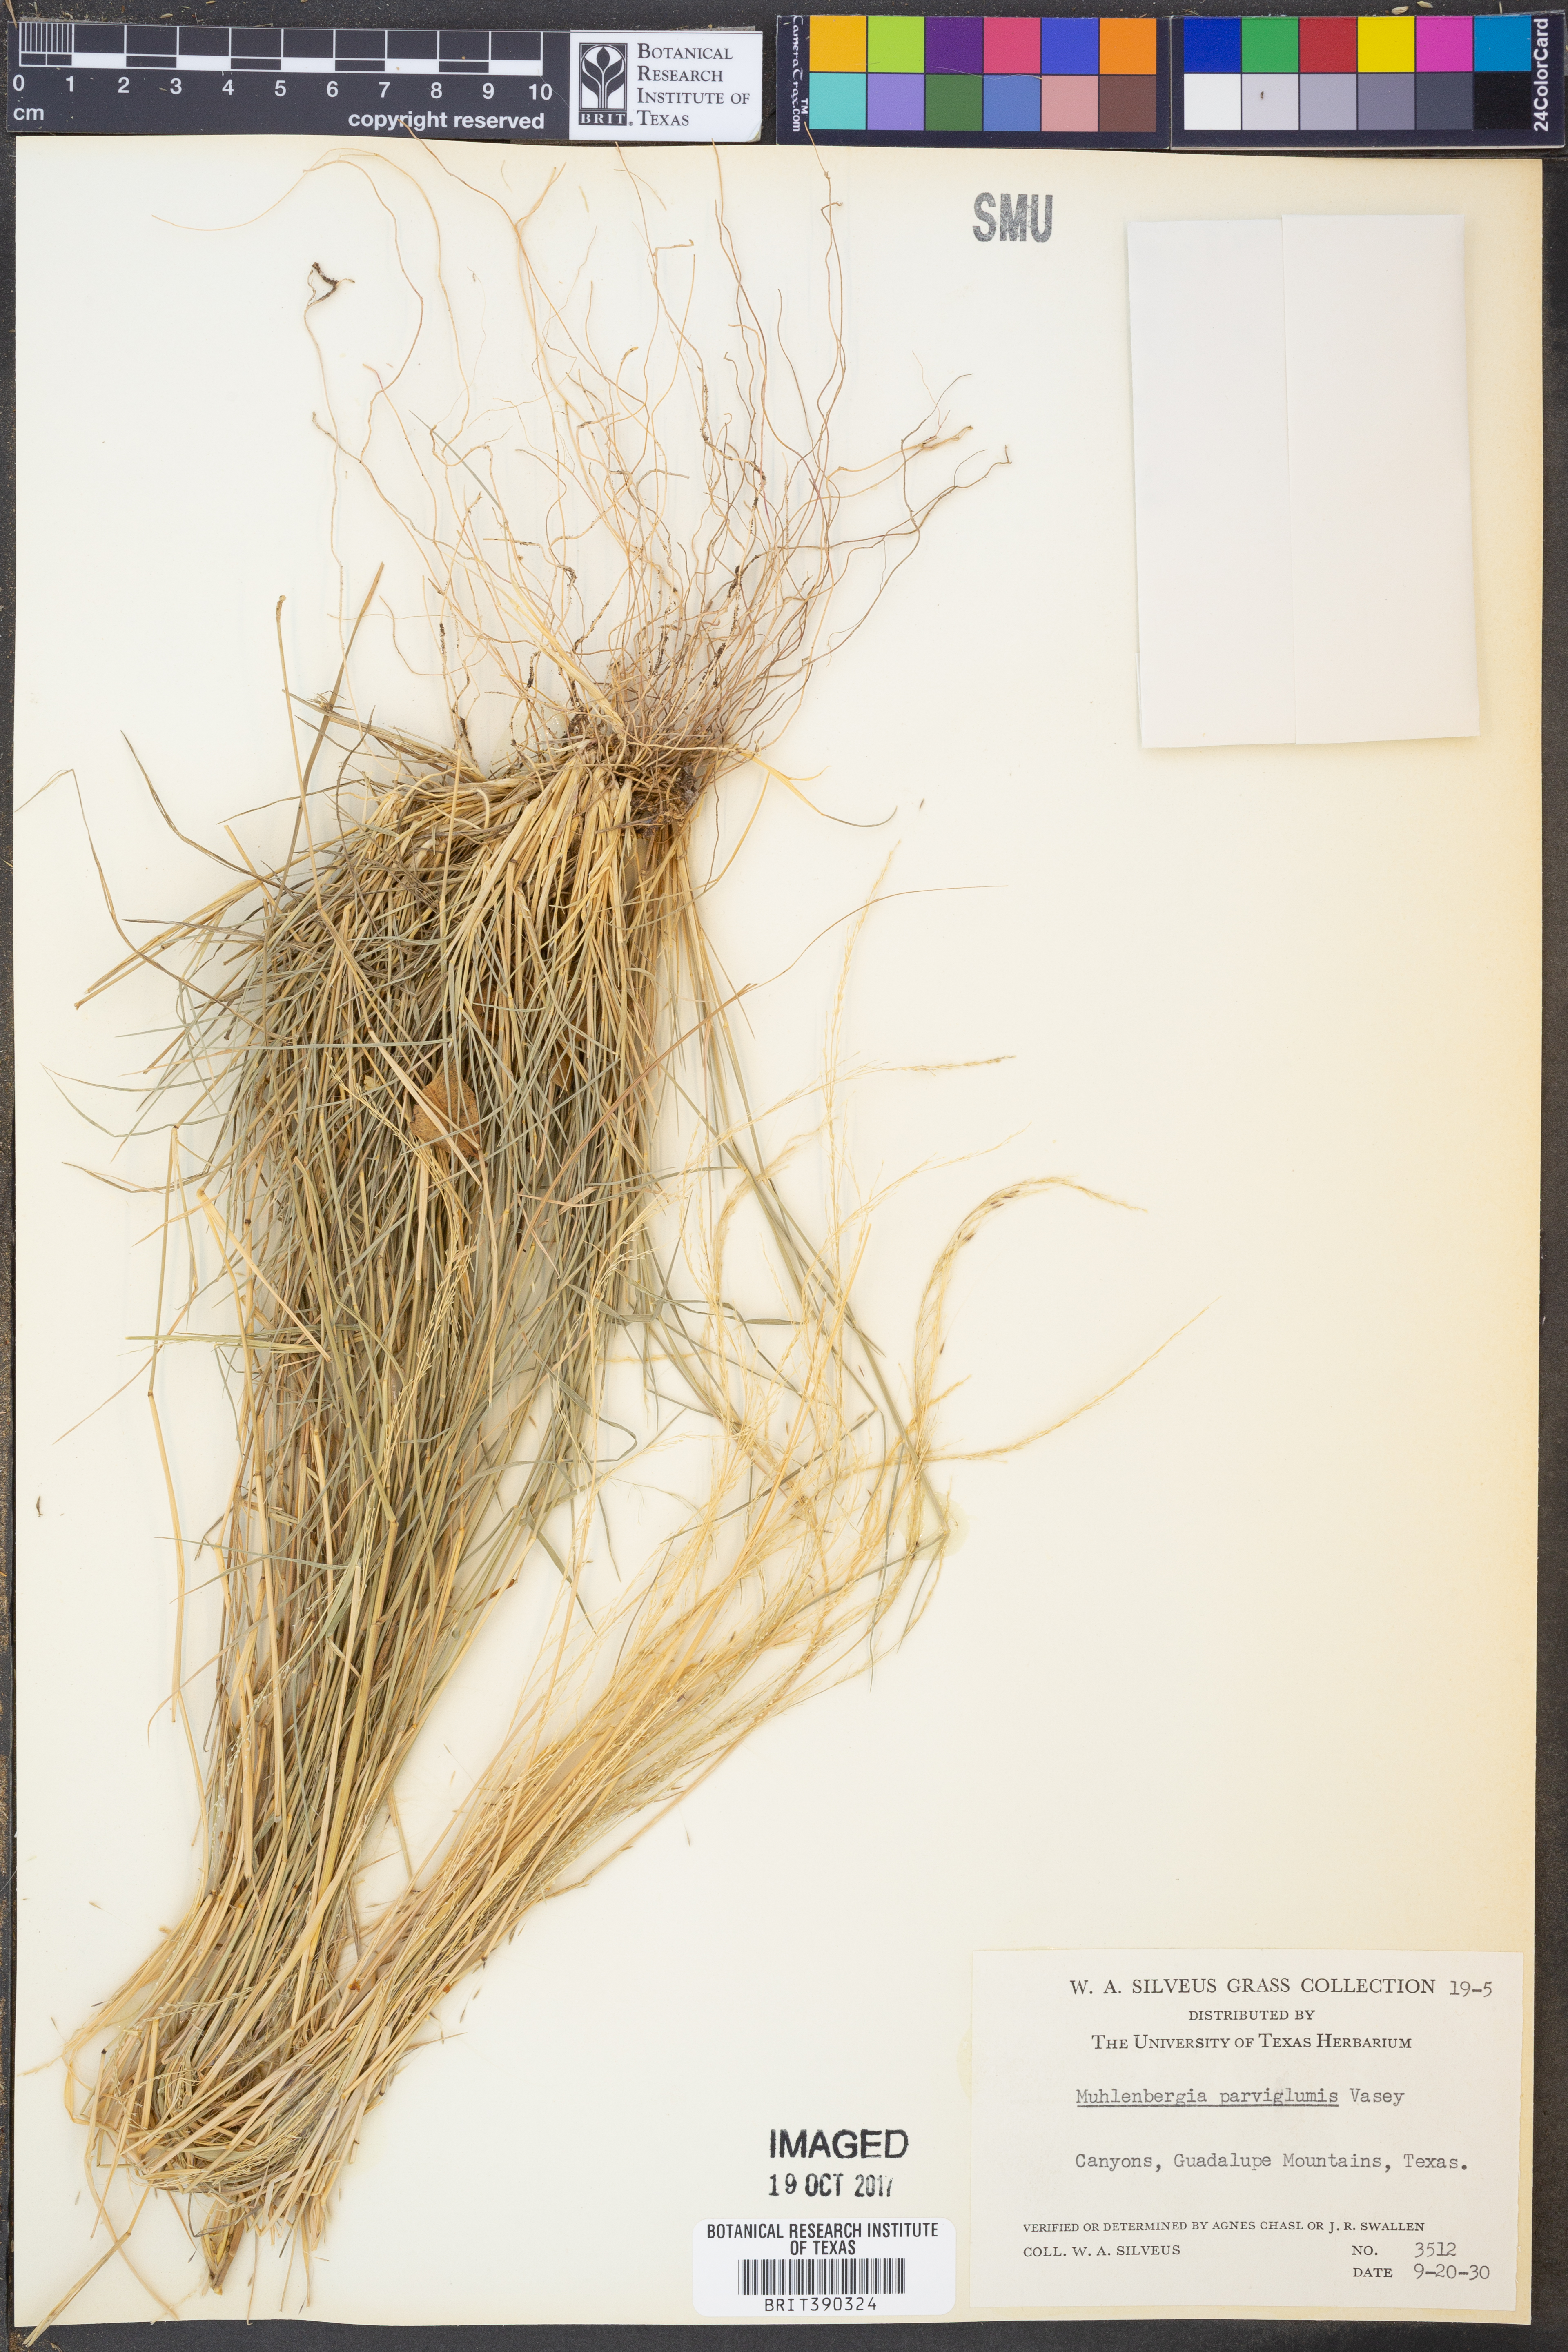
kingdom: Plantae
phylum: Tracheophyta
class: Liliopsida
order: Poales
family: Poaceae
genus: Muhlenbergia
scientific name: Muhlenbergia spiciformis
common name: Longawn muhly
